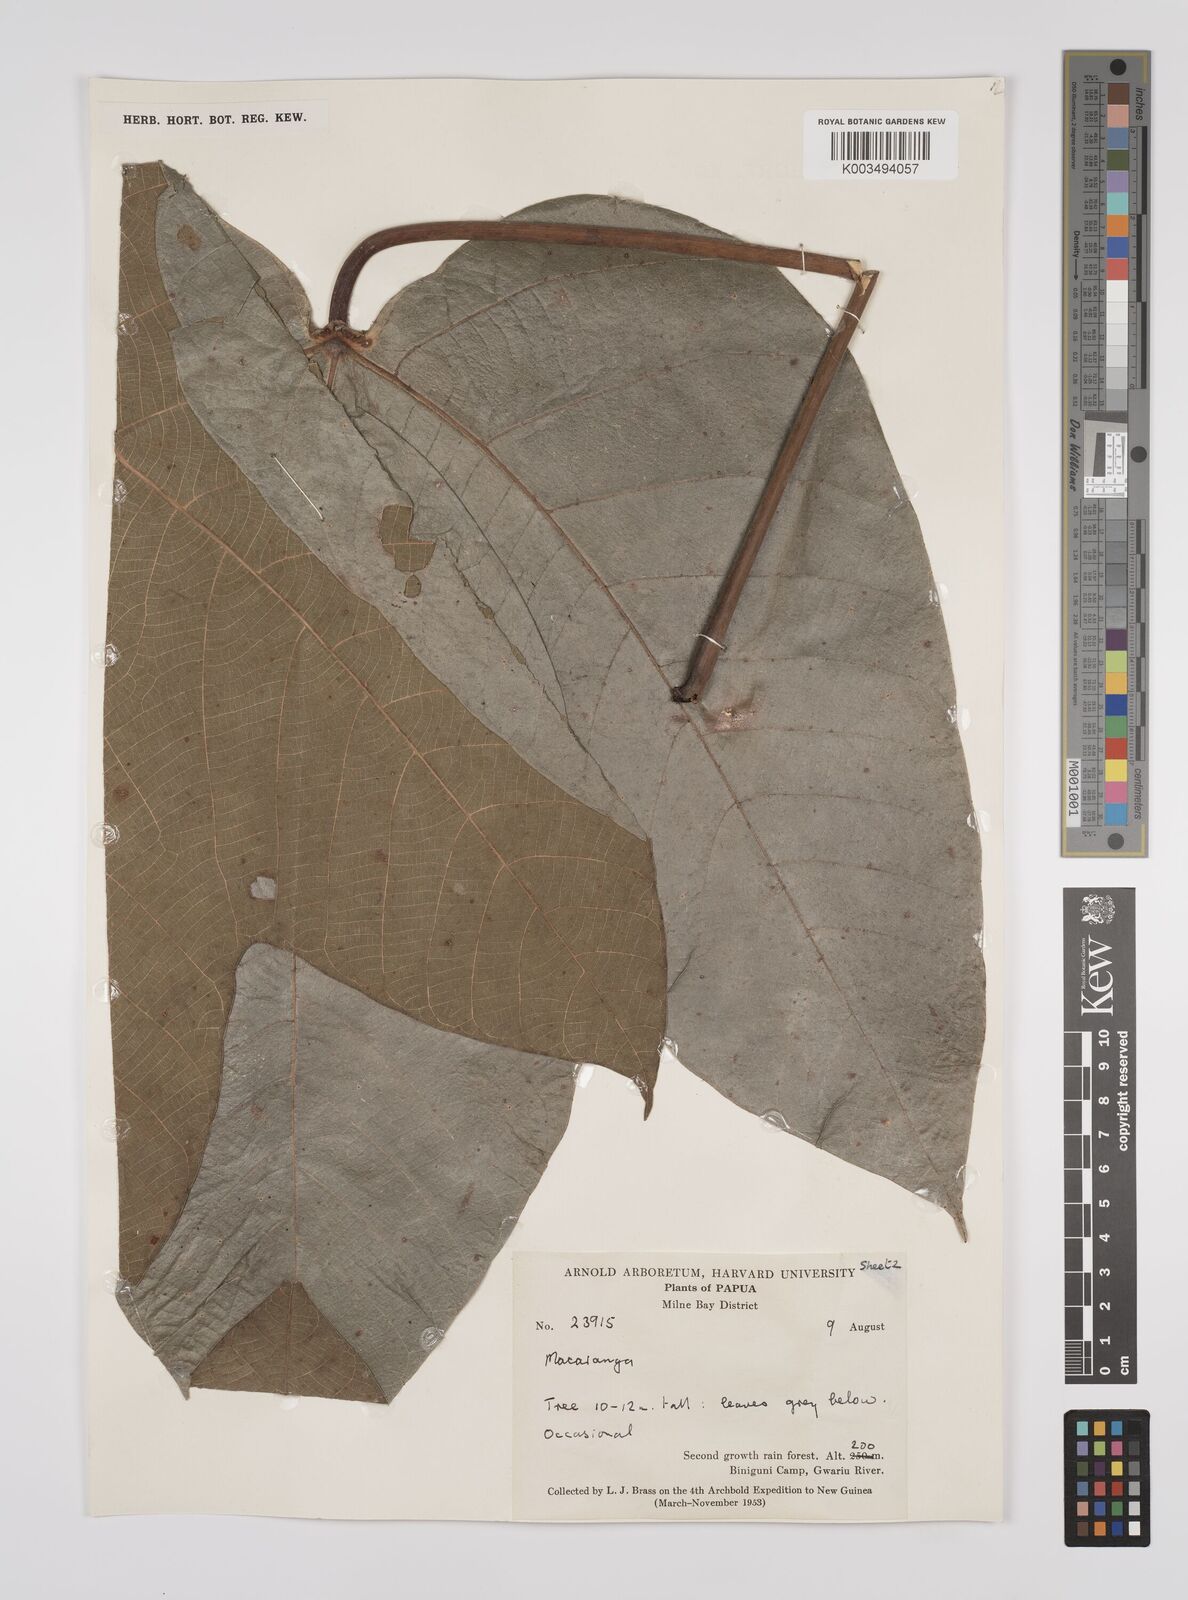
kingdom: Plantae
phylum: Tracheophyta
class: Magnoliopsida
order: Malpighiales
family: Euphorbiaceae
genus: Macaranga
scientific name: Macaranga aleuritoides
